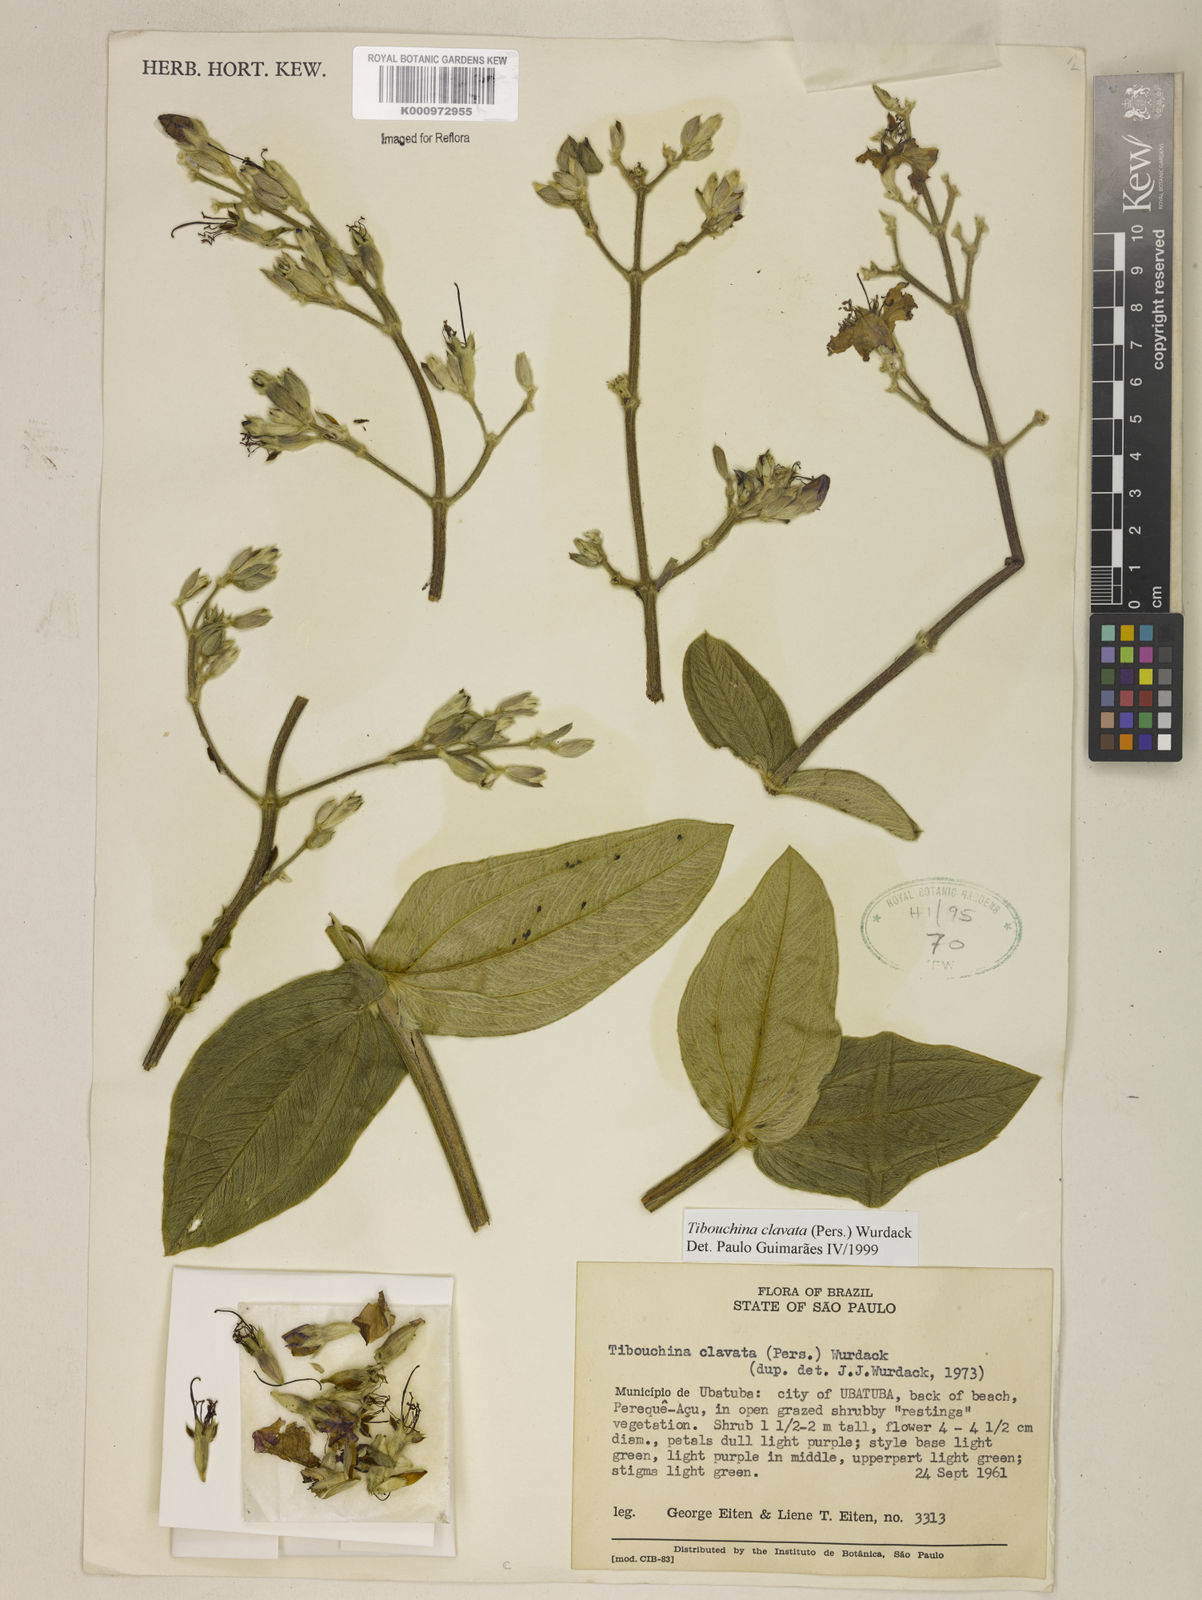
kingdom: Plantae
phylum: Tracheophyta
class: Magnoliopsida
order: Myrtales
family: Melastomataceae
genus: Pleroma
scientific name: Pleroma clavatum
